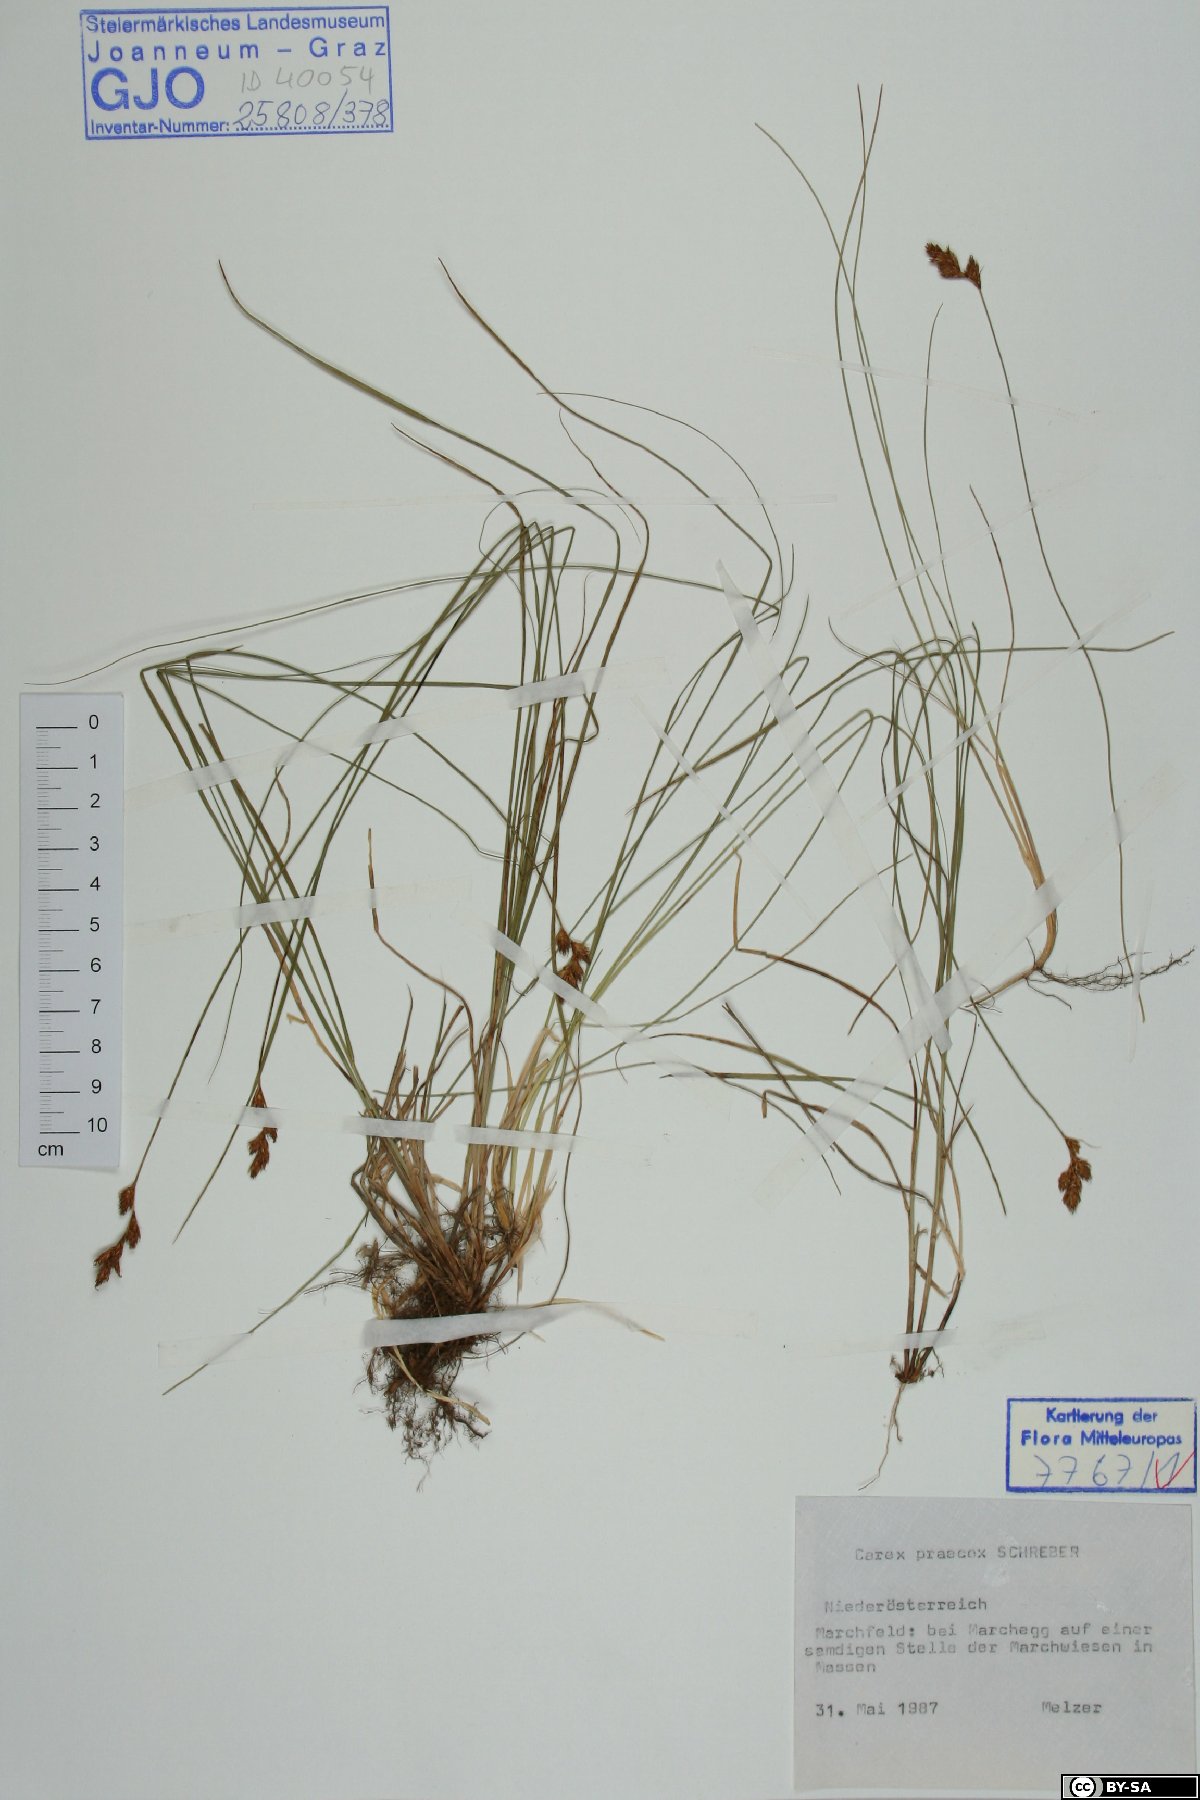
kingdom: Plantae
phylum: Tracheophyta
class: Liliopsida
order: Poales
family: Cyperaceae
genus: Carex
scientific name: Carex praecox
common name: Early sedge
